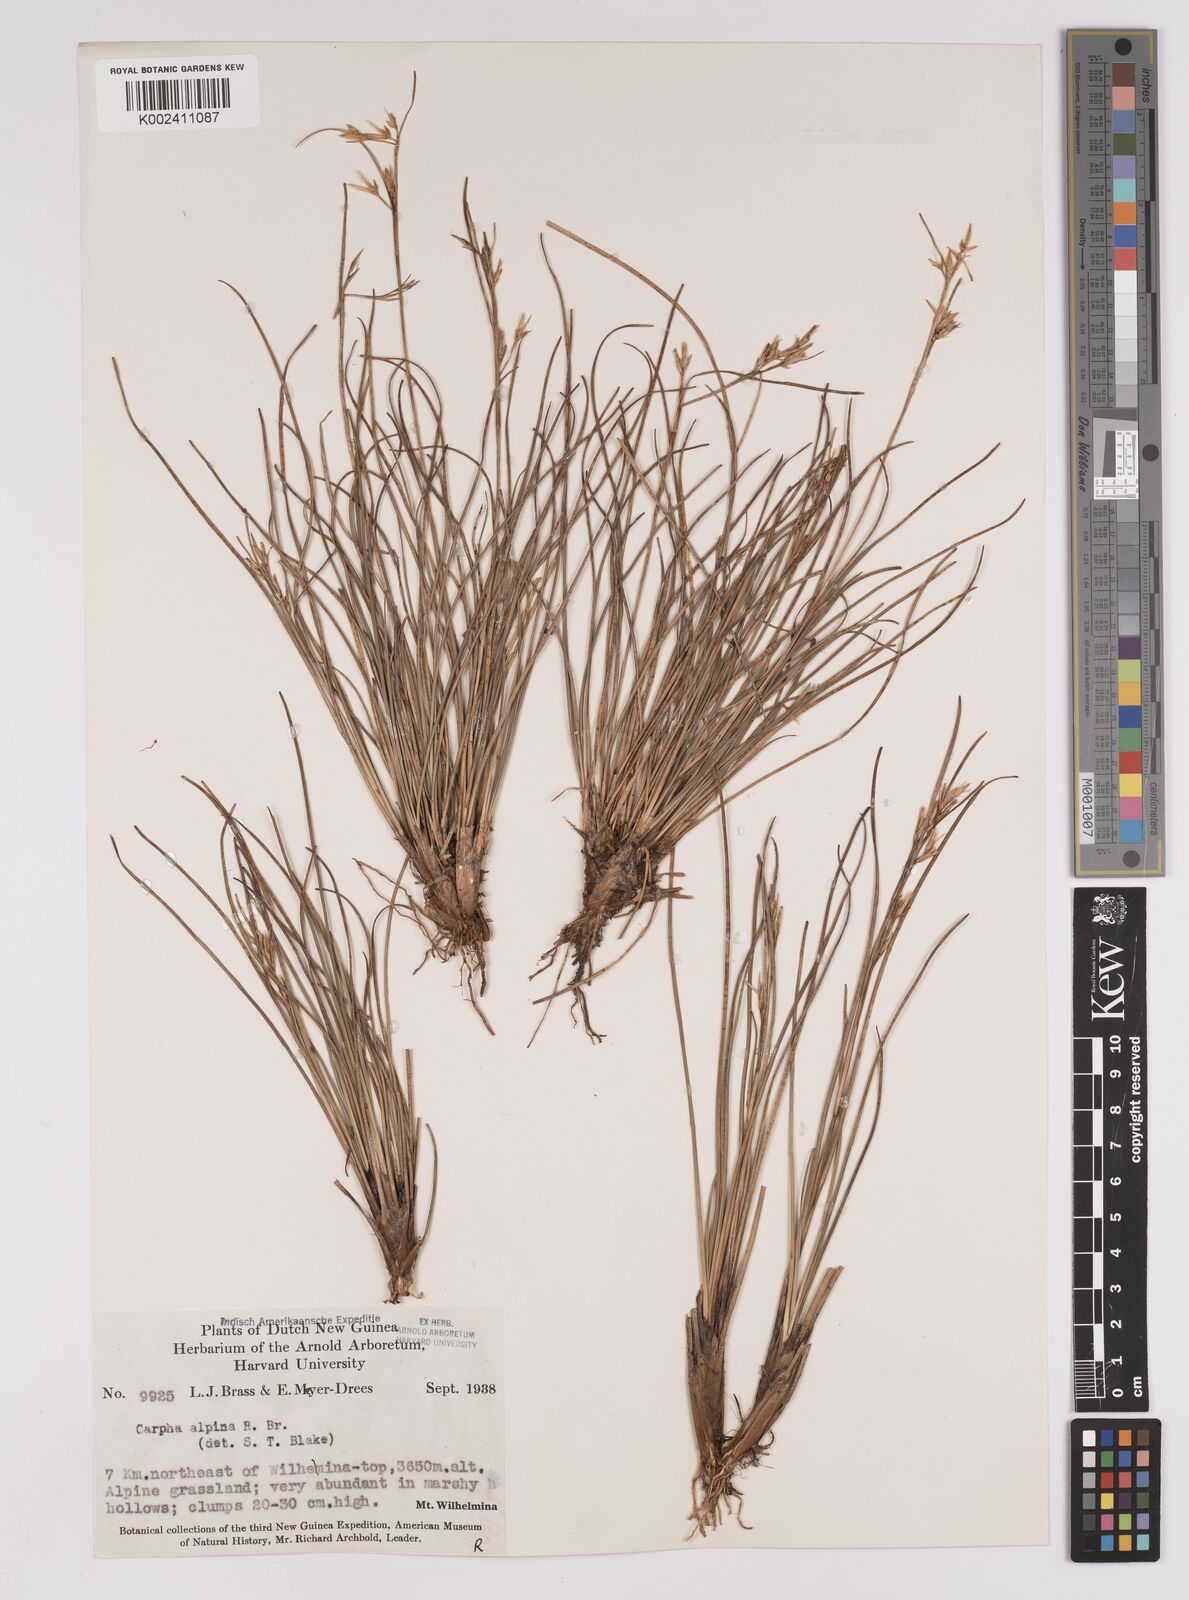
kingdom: Plantae
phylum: Tracheophyta
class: Liliopsida
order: Poales
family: Cyperaceae
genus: Carpha
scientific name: Carpha alpina
